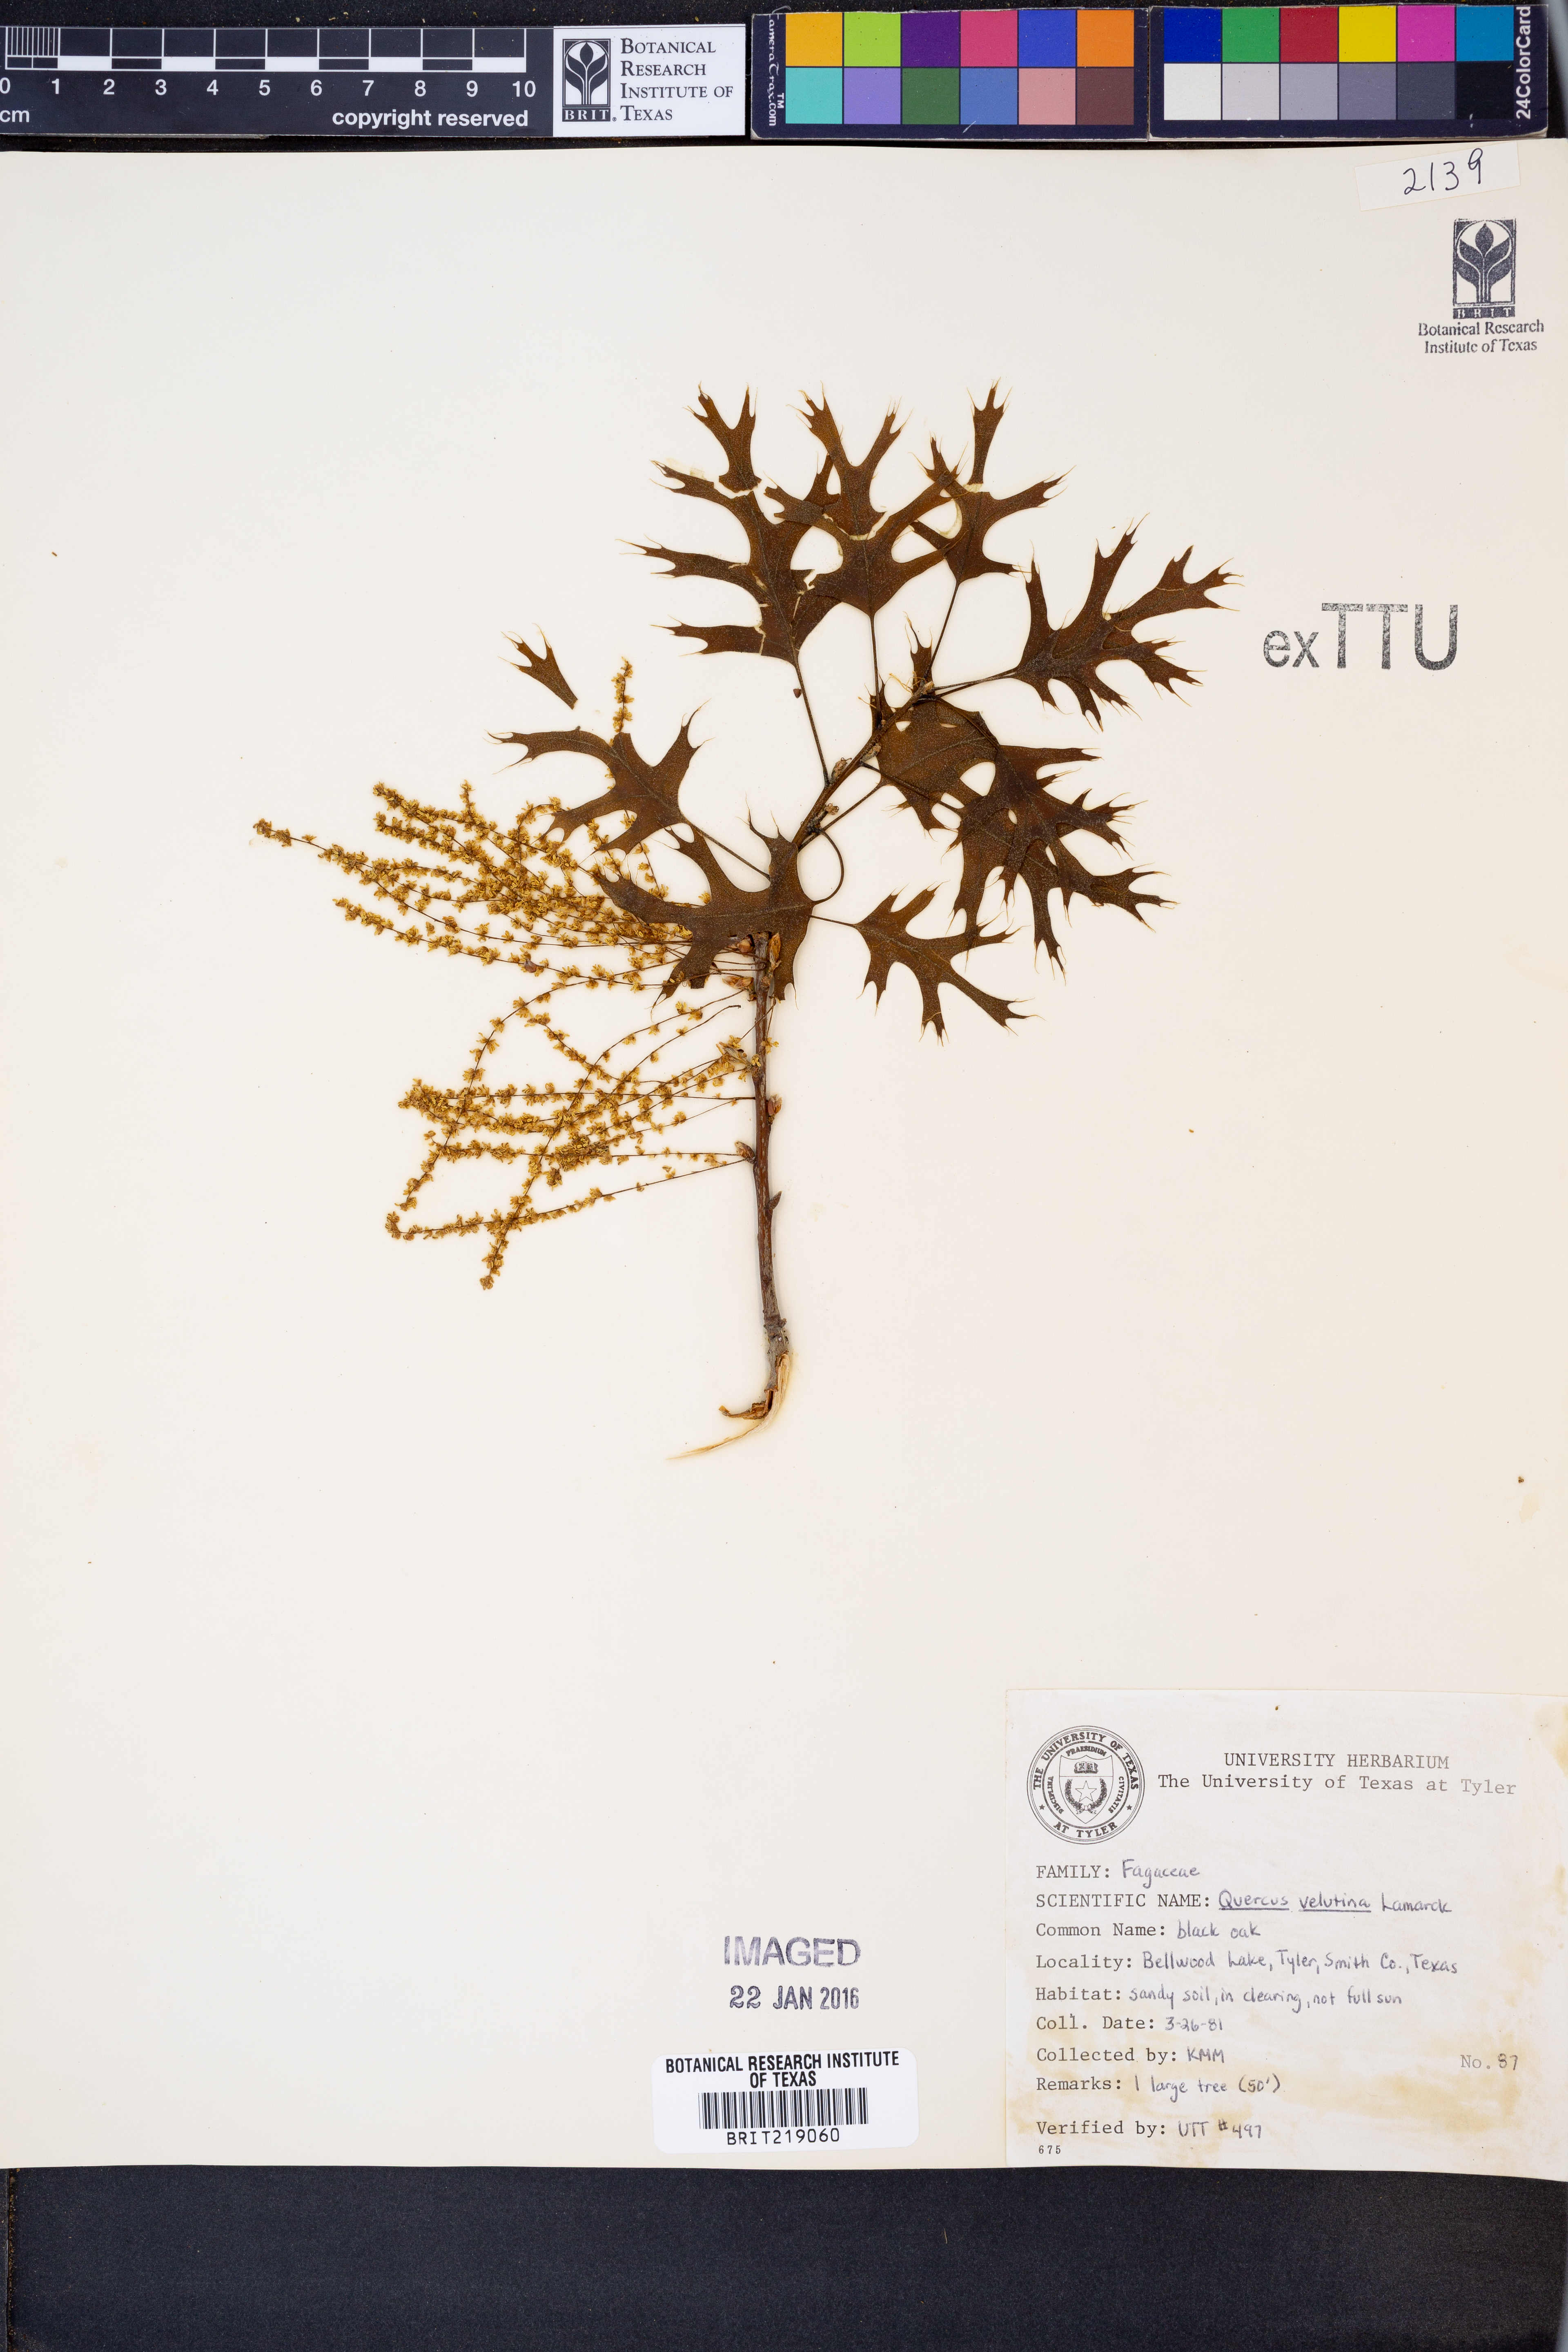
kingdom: Plantae
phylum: Tracheophyta
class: Magnoliopsida
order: Fagales
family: Fagaceae
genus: Quercus
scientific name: Quercus velutina
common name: Black oak
